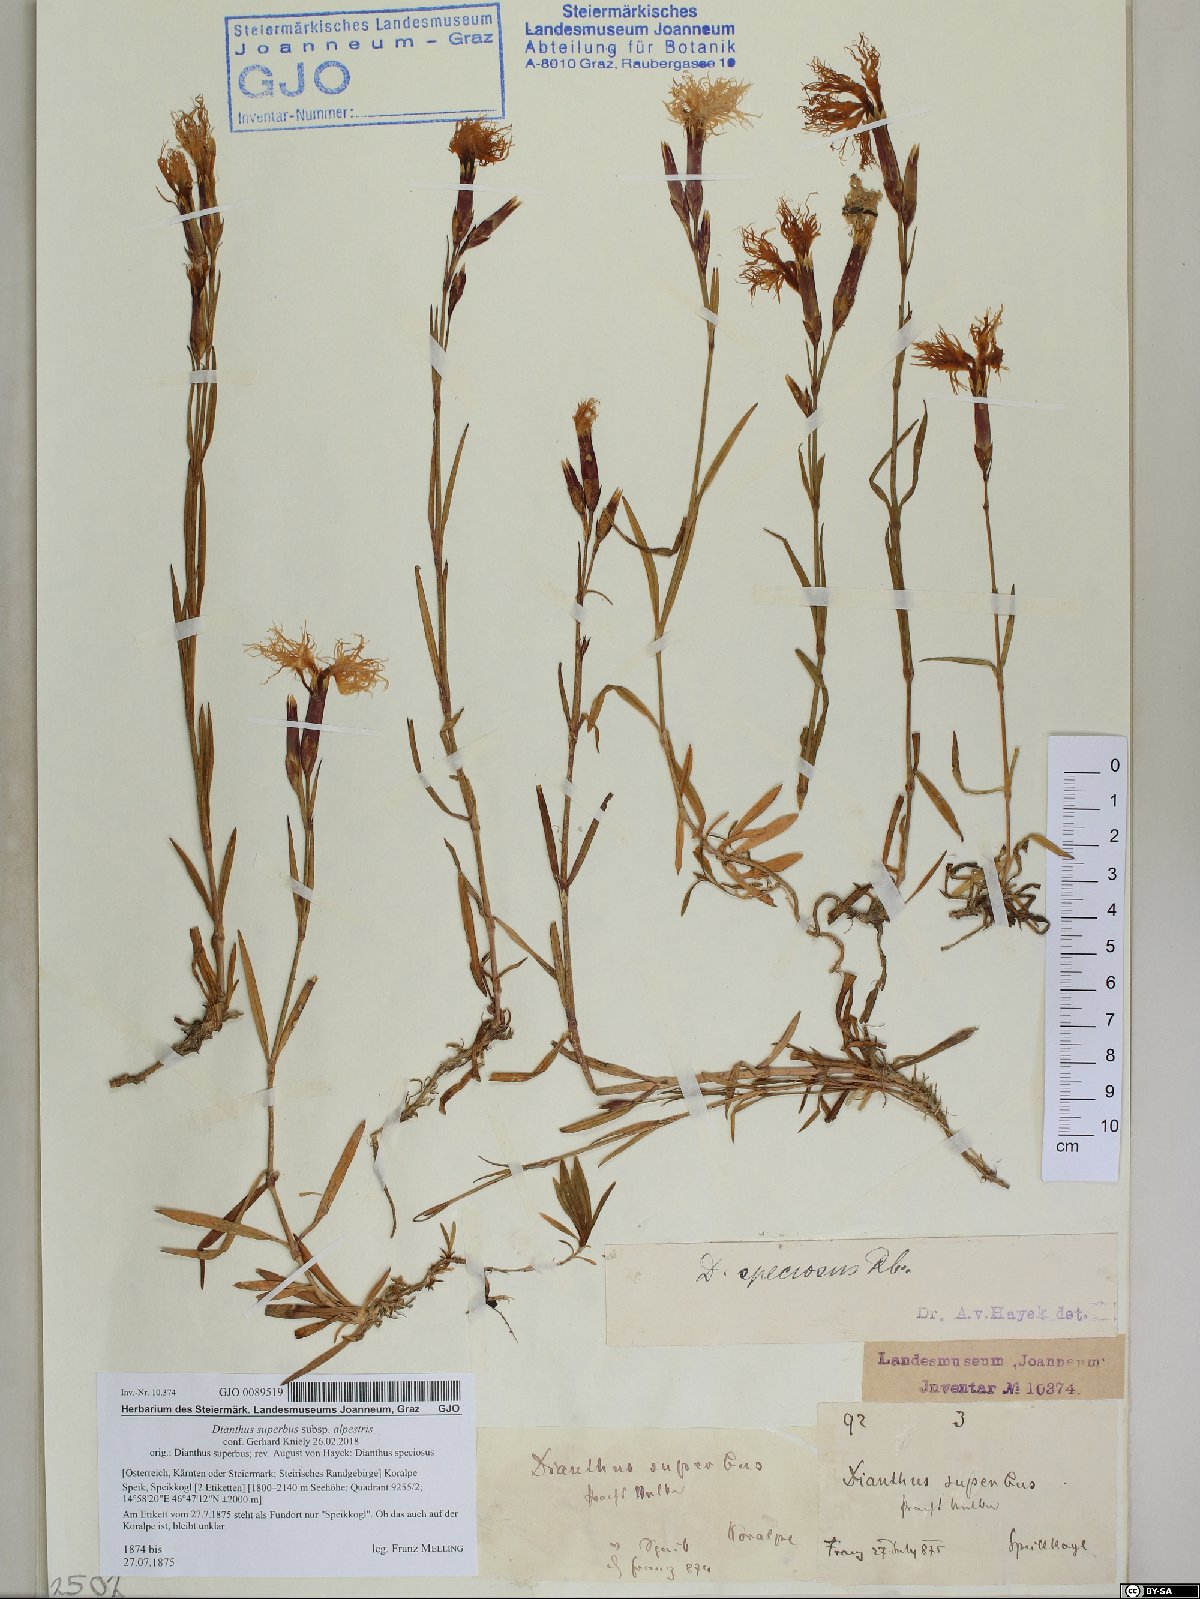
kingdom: Plantae
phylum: Tracheophyta
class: Magnoliopsida
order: Caryophyllales
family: Caryophyllaceae
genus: Dianthus
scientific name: Dianthus superbus
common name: Fringed pink
